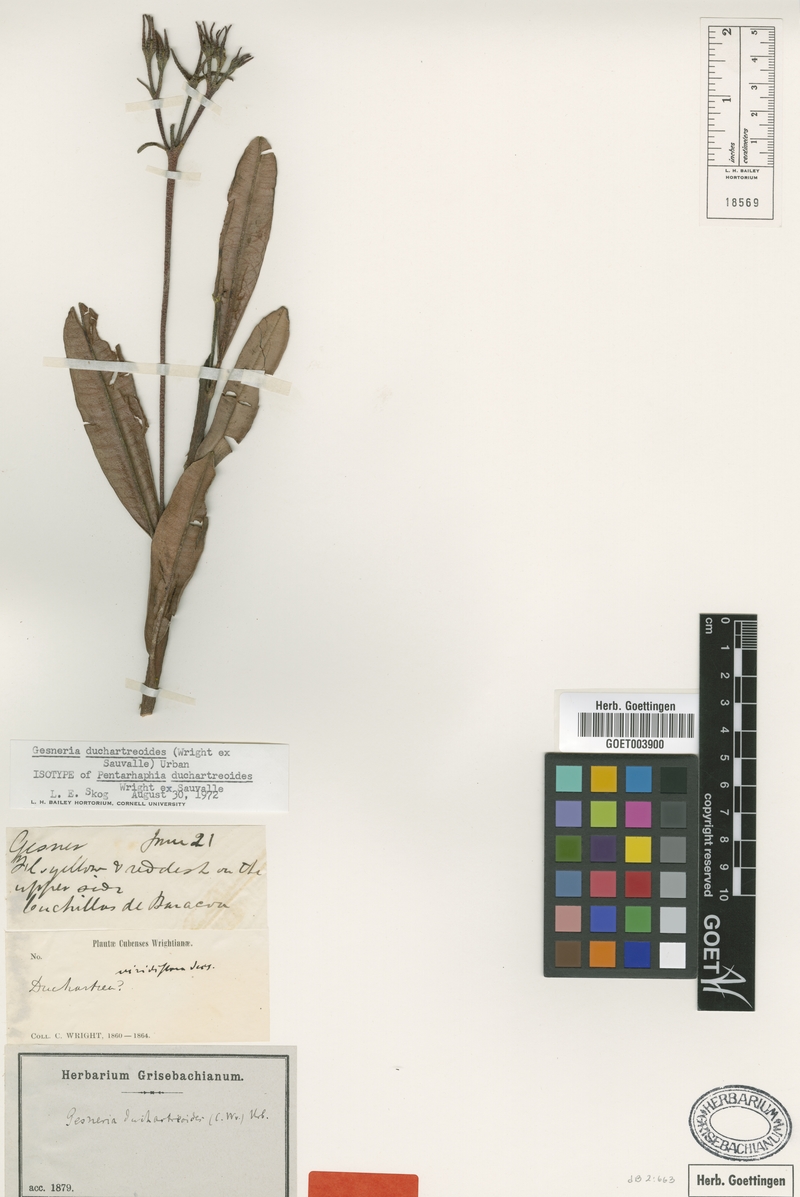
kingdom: Plantae
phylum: Tracheophyta
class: Magnoliopsida
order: Lamiales
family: Gesneriaceae
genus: Gesneria
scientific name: Gesneria duchartreoides
